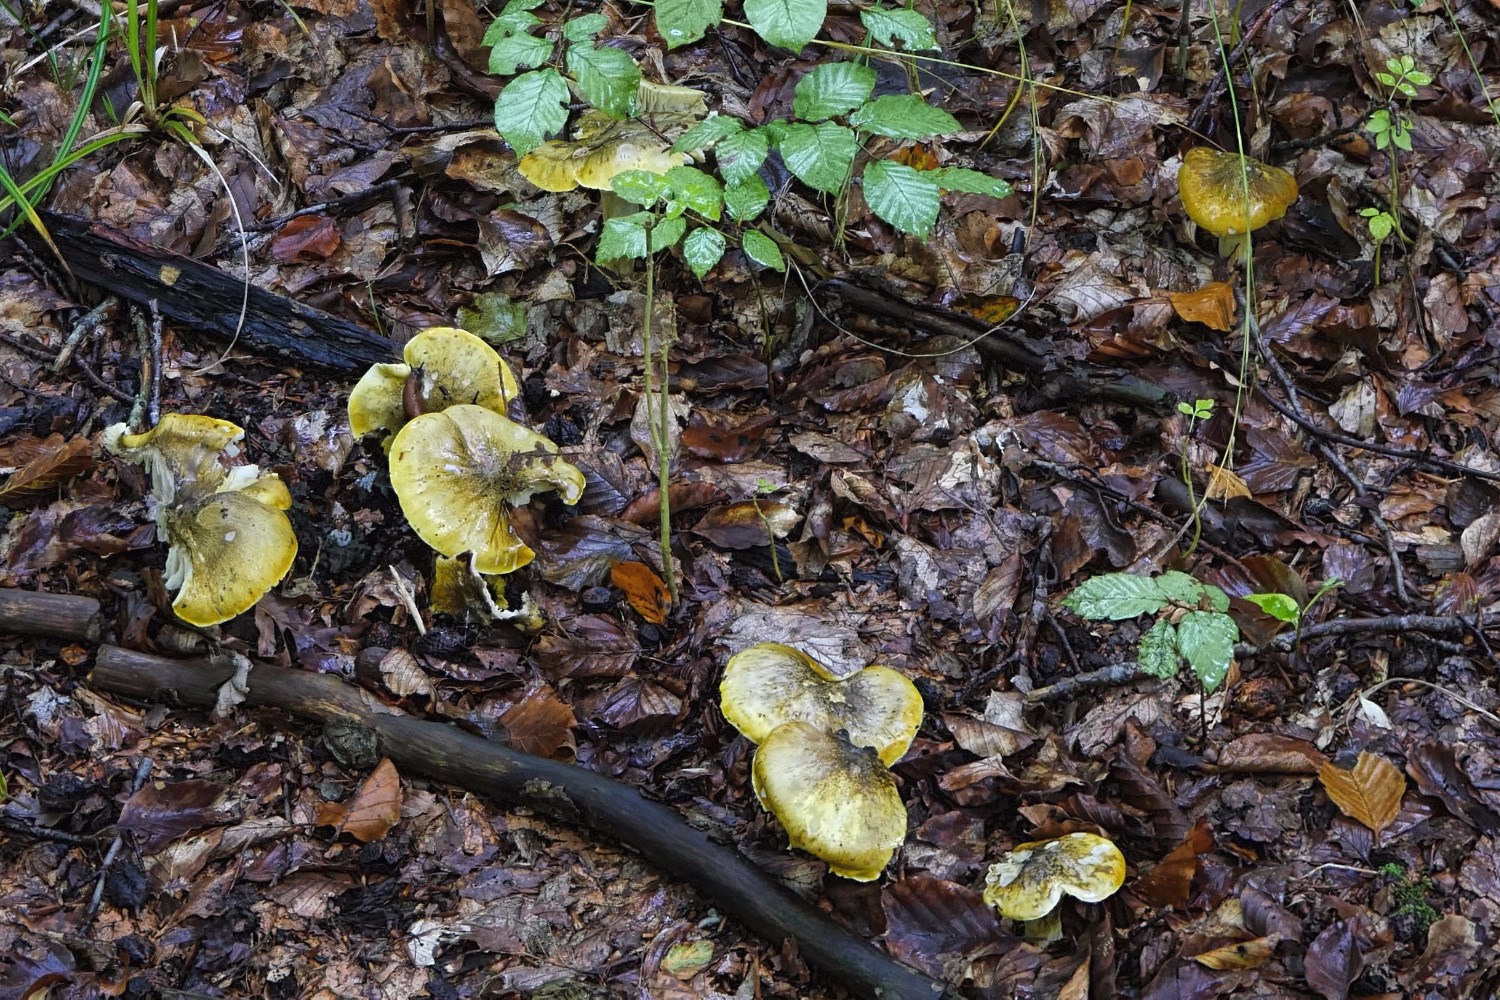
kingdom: Fungi
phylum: Basidiomycota
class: Agaricomycetes
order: Agaricales
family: Tricholomataceae
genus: Tricholoma
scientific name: Tricholoma sejunctum
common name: grøngul ridderhat
